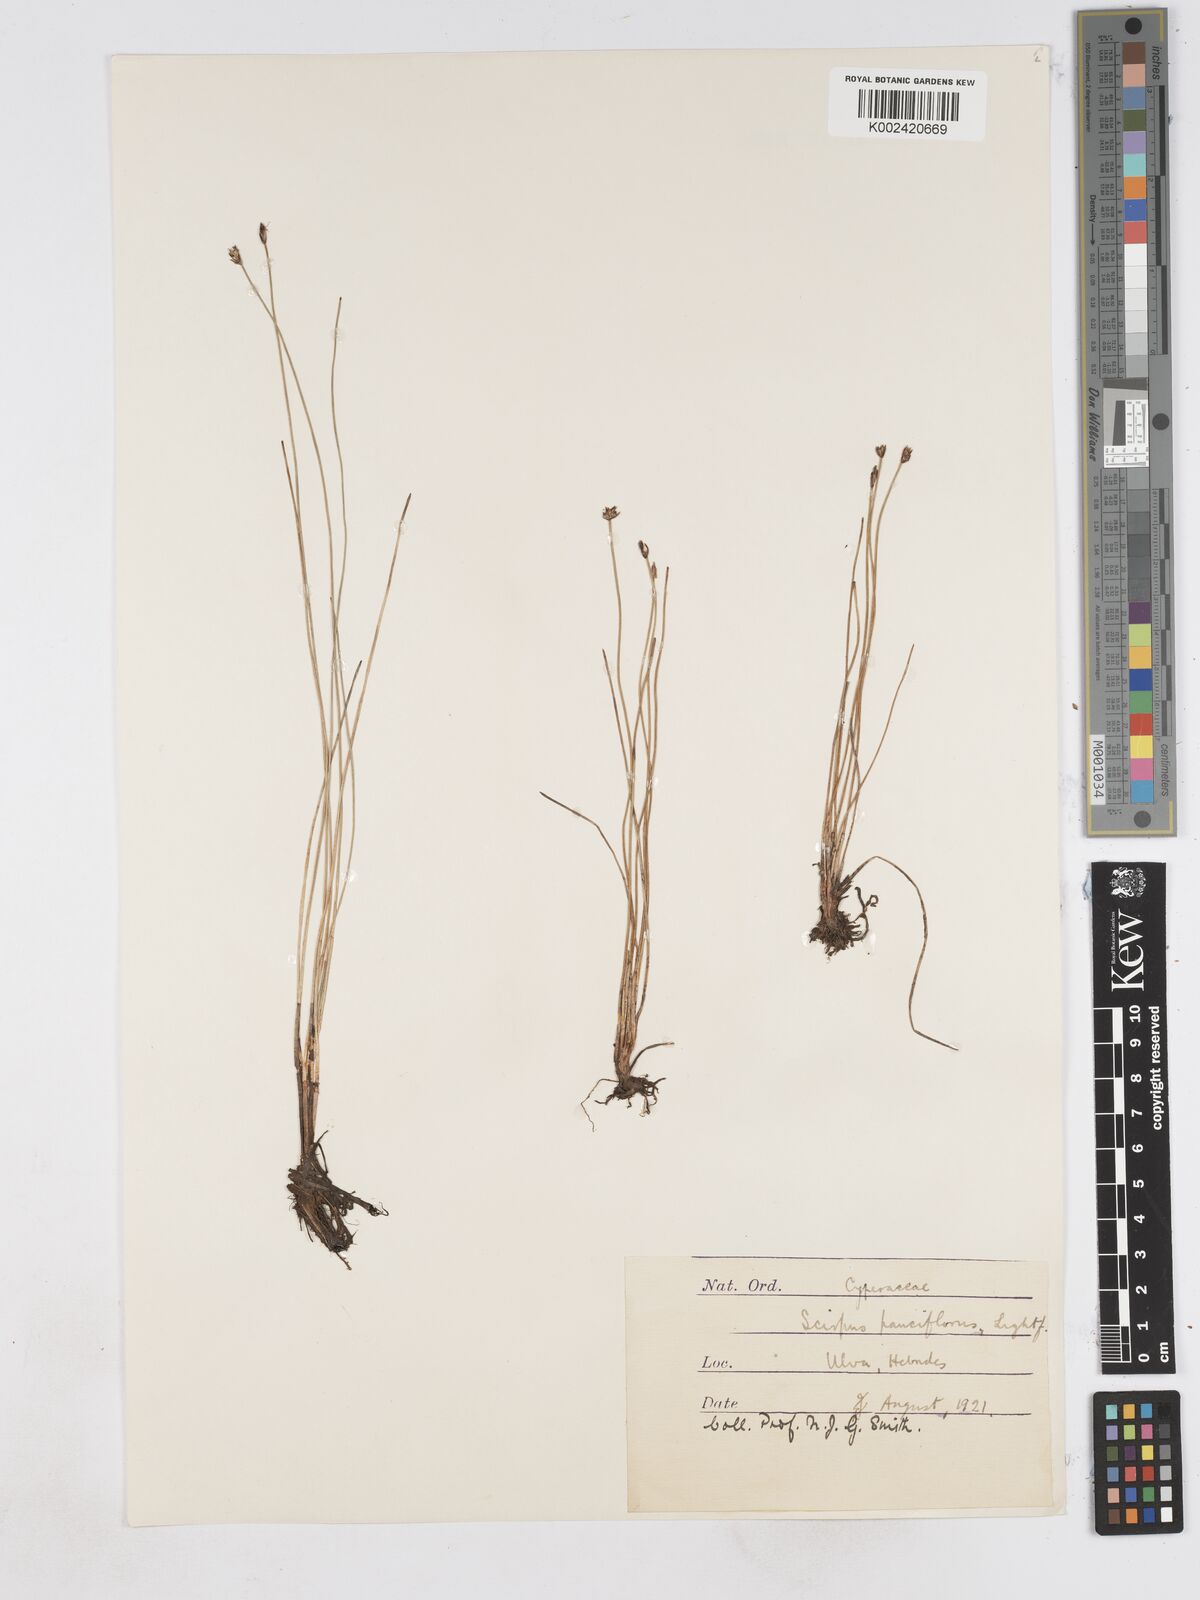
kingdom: Plantae
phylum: Tracheophyta
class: Liliopsida
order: Poales
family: Cyperaceae
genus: Eleocharis
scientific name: Eleocharis quinqueflora
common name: Few-flowered spike-rush
